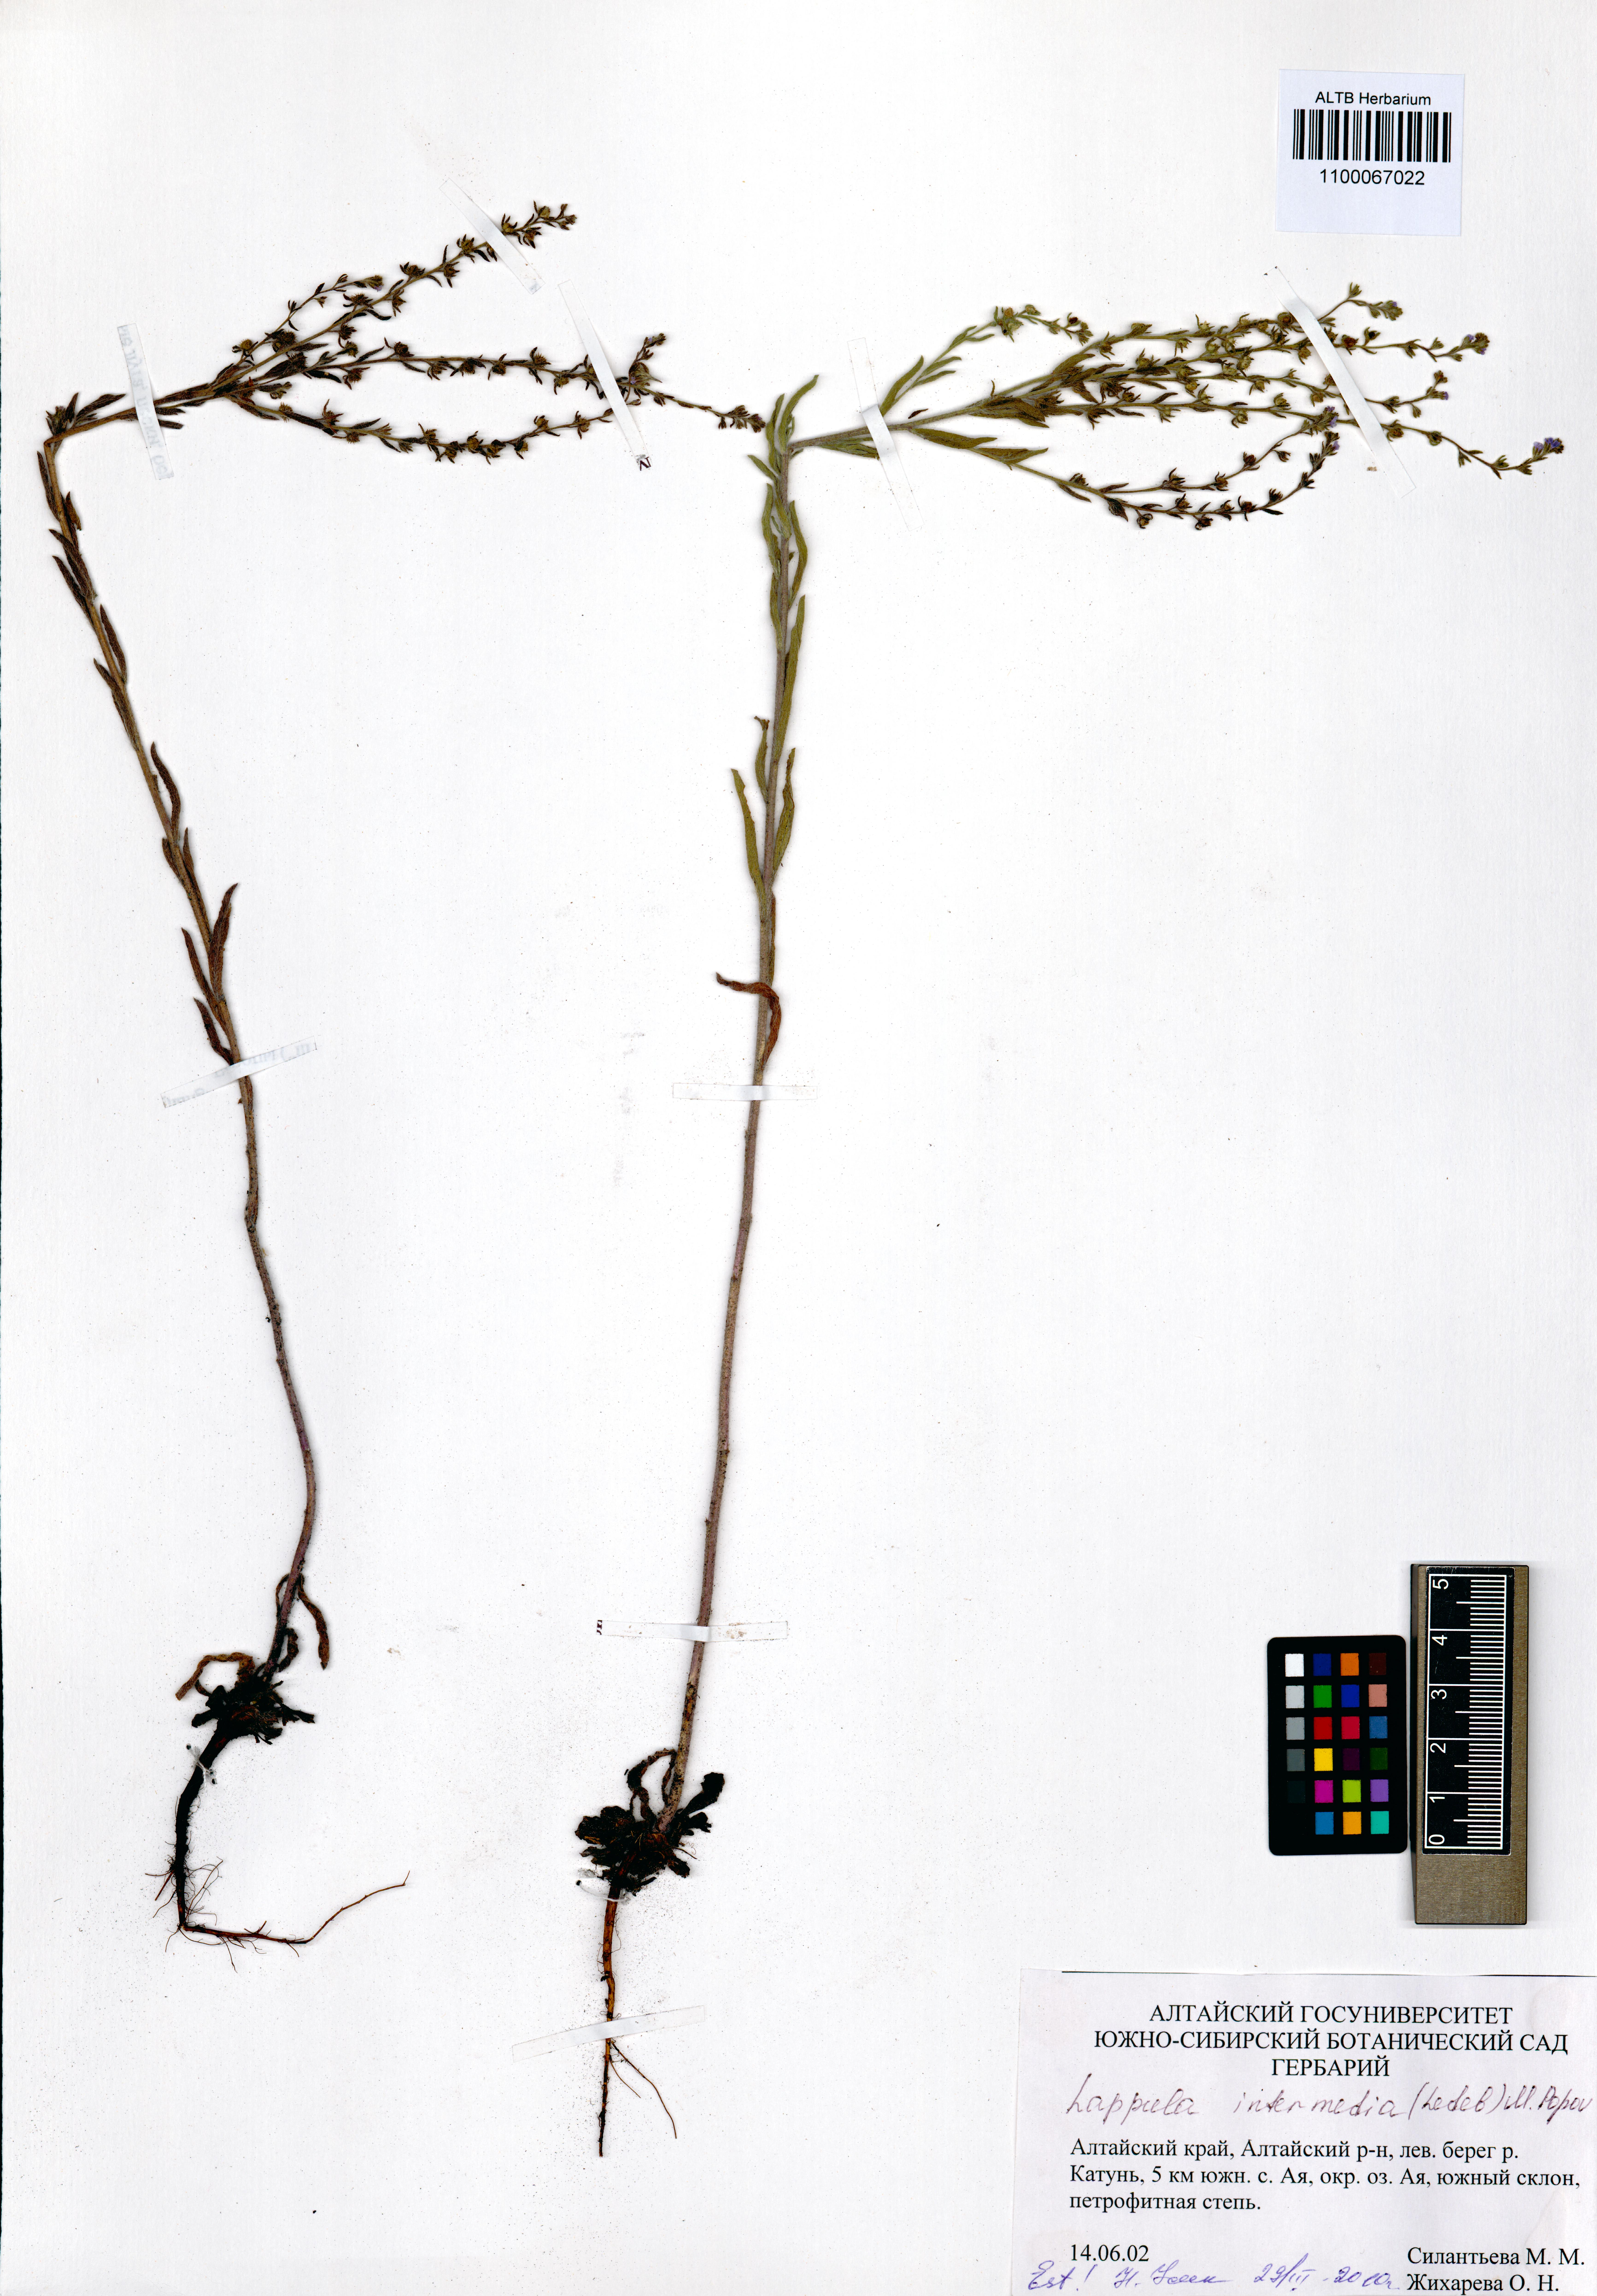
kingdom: Plantae
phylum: Tracheophyta
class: Magnoliopsida
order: Boraginales
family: Boraginaceae
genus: Lappula
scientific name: Lappula intermedia
